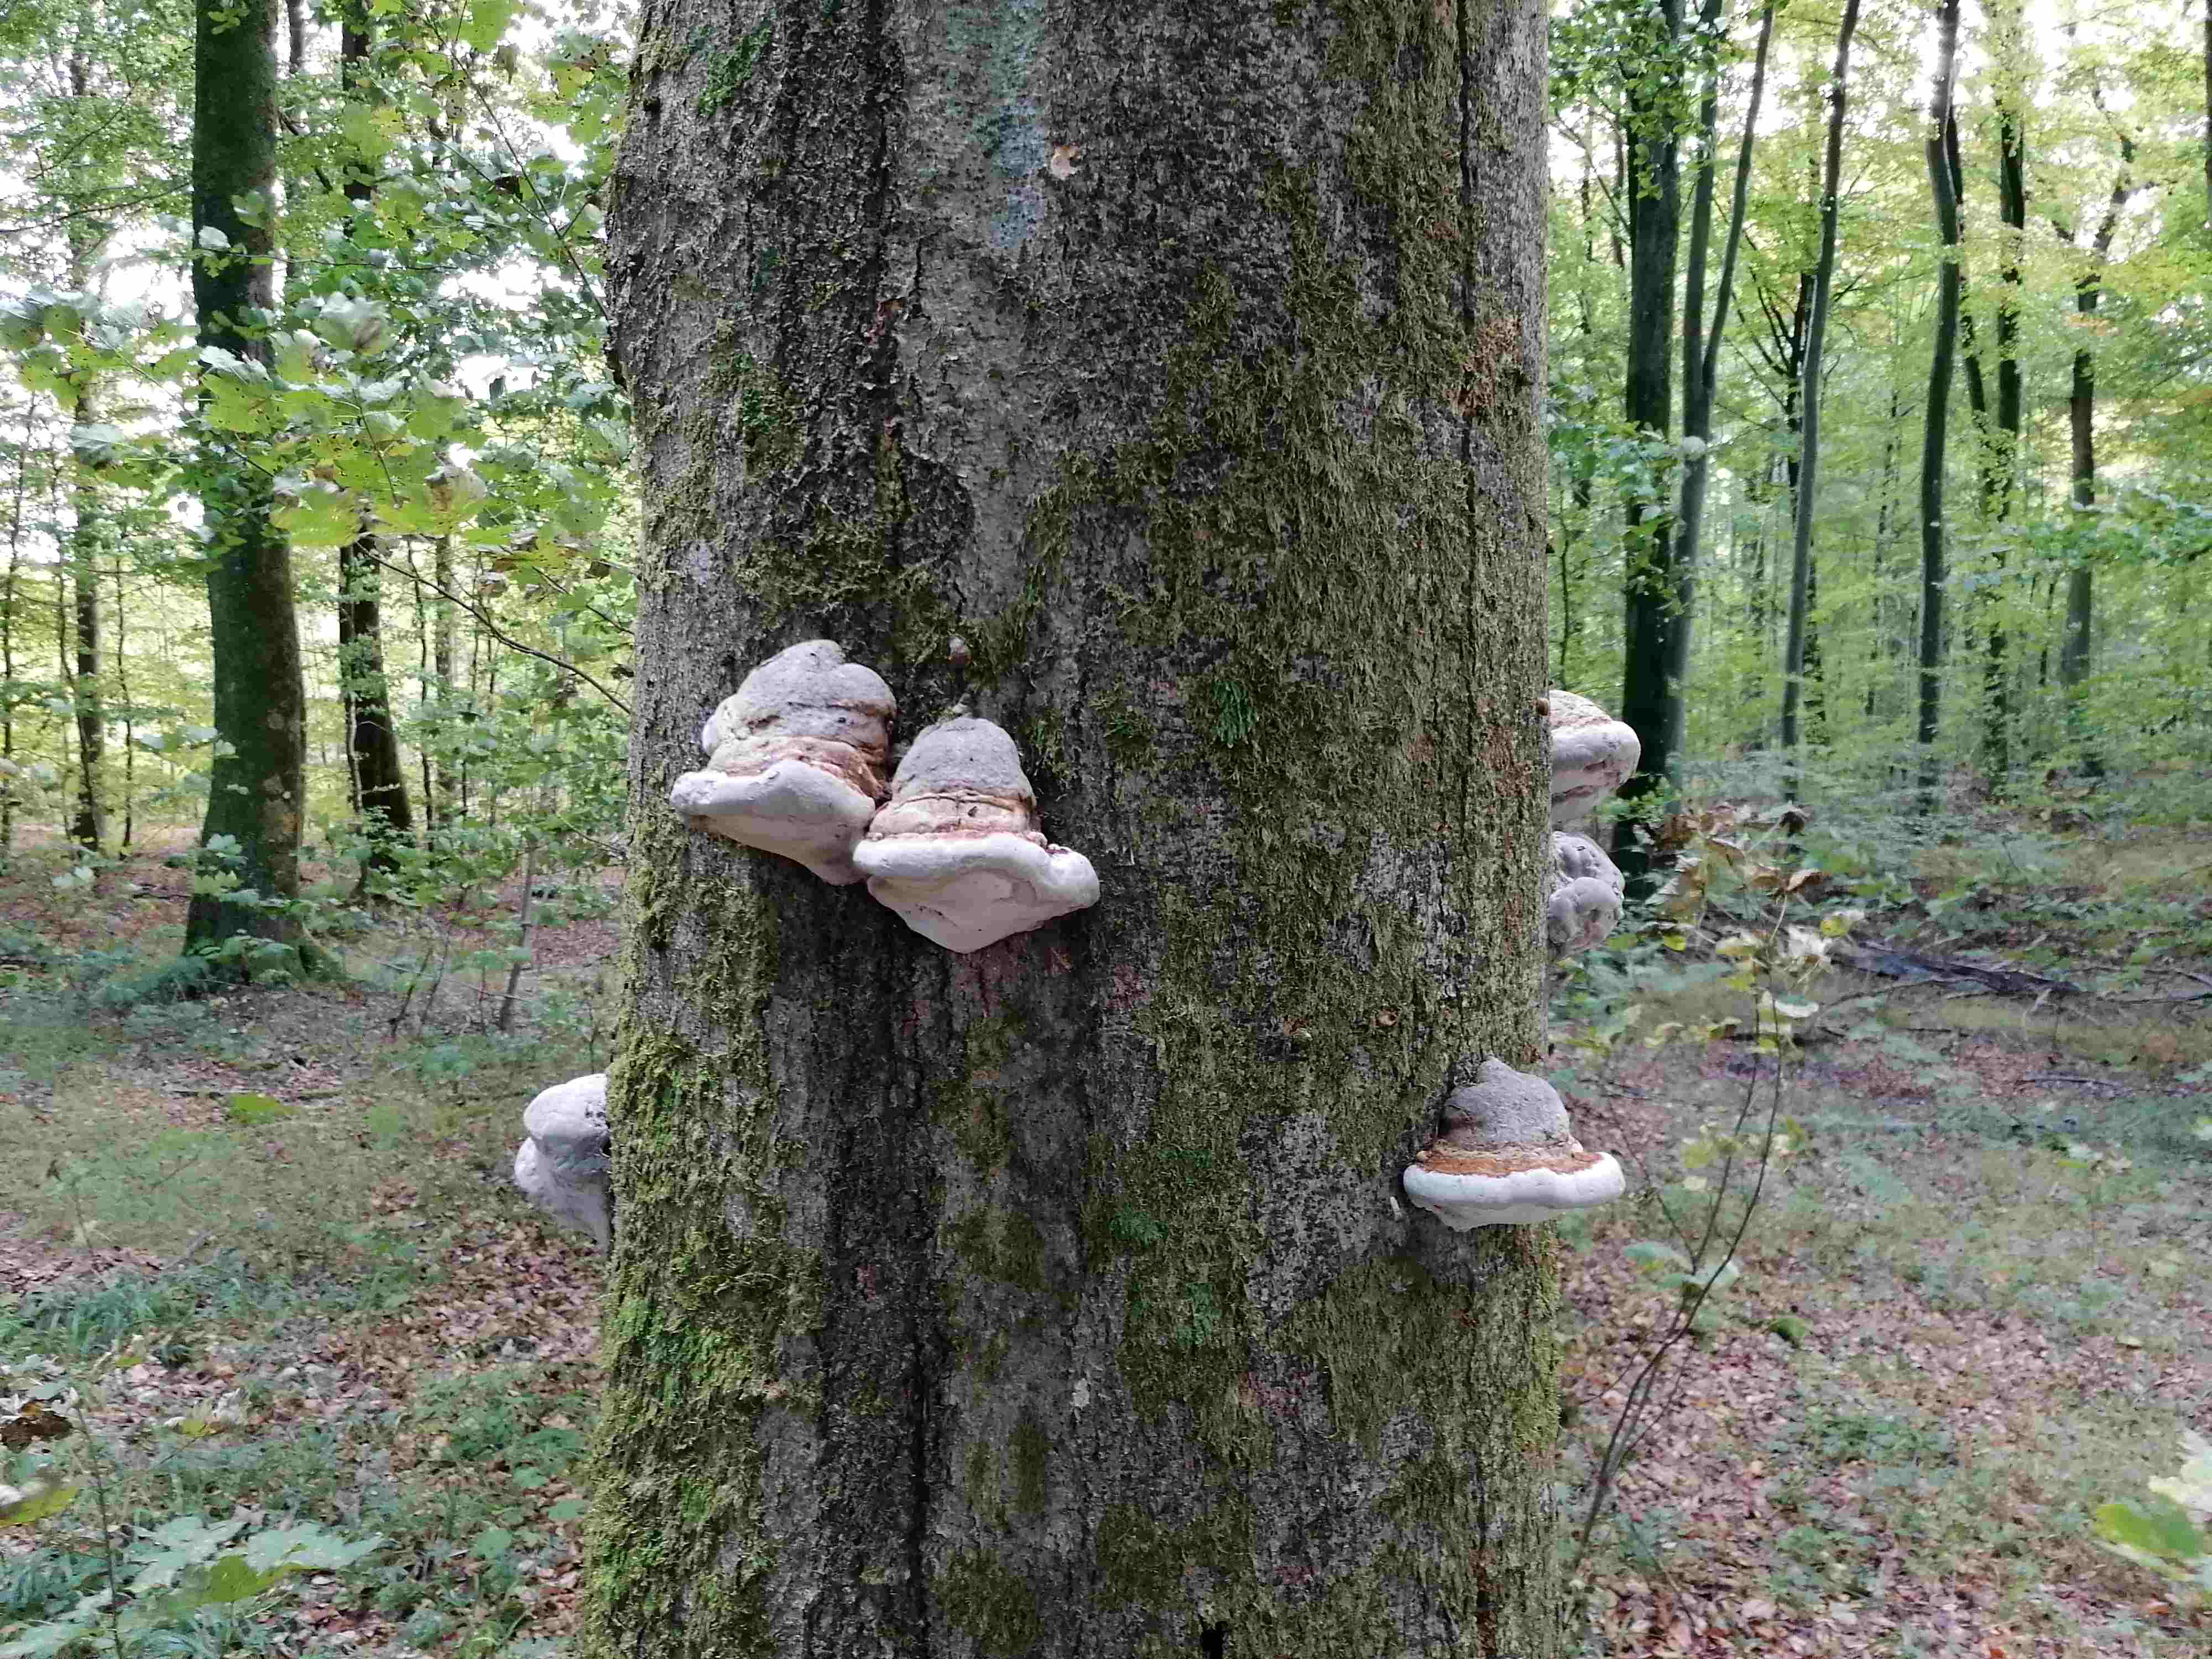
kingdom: Fungi
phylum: Basidiomycota
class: Agaricomycetes
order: Polyporales
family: Polyporaceae
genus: Fomes
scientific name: Fomes fomentarius
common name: tøndersvamp
